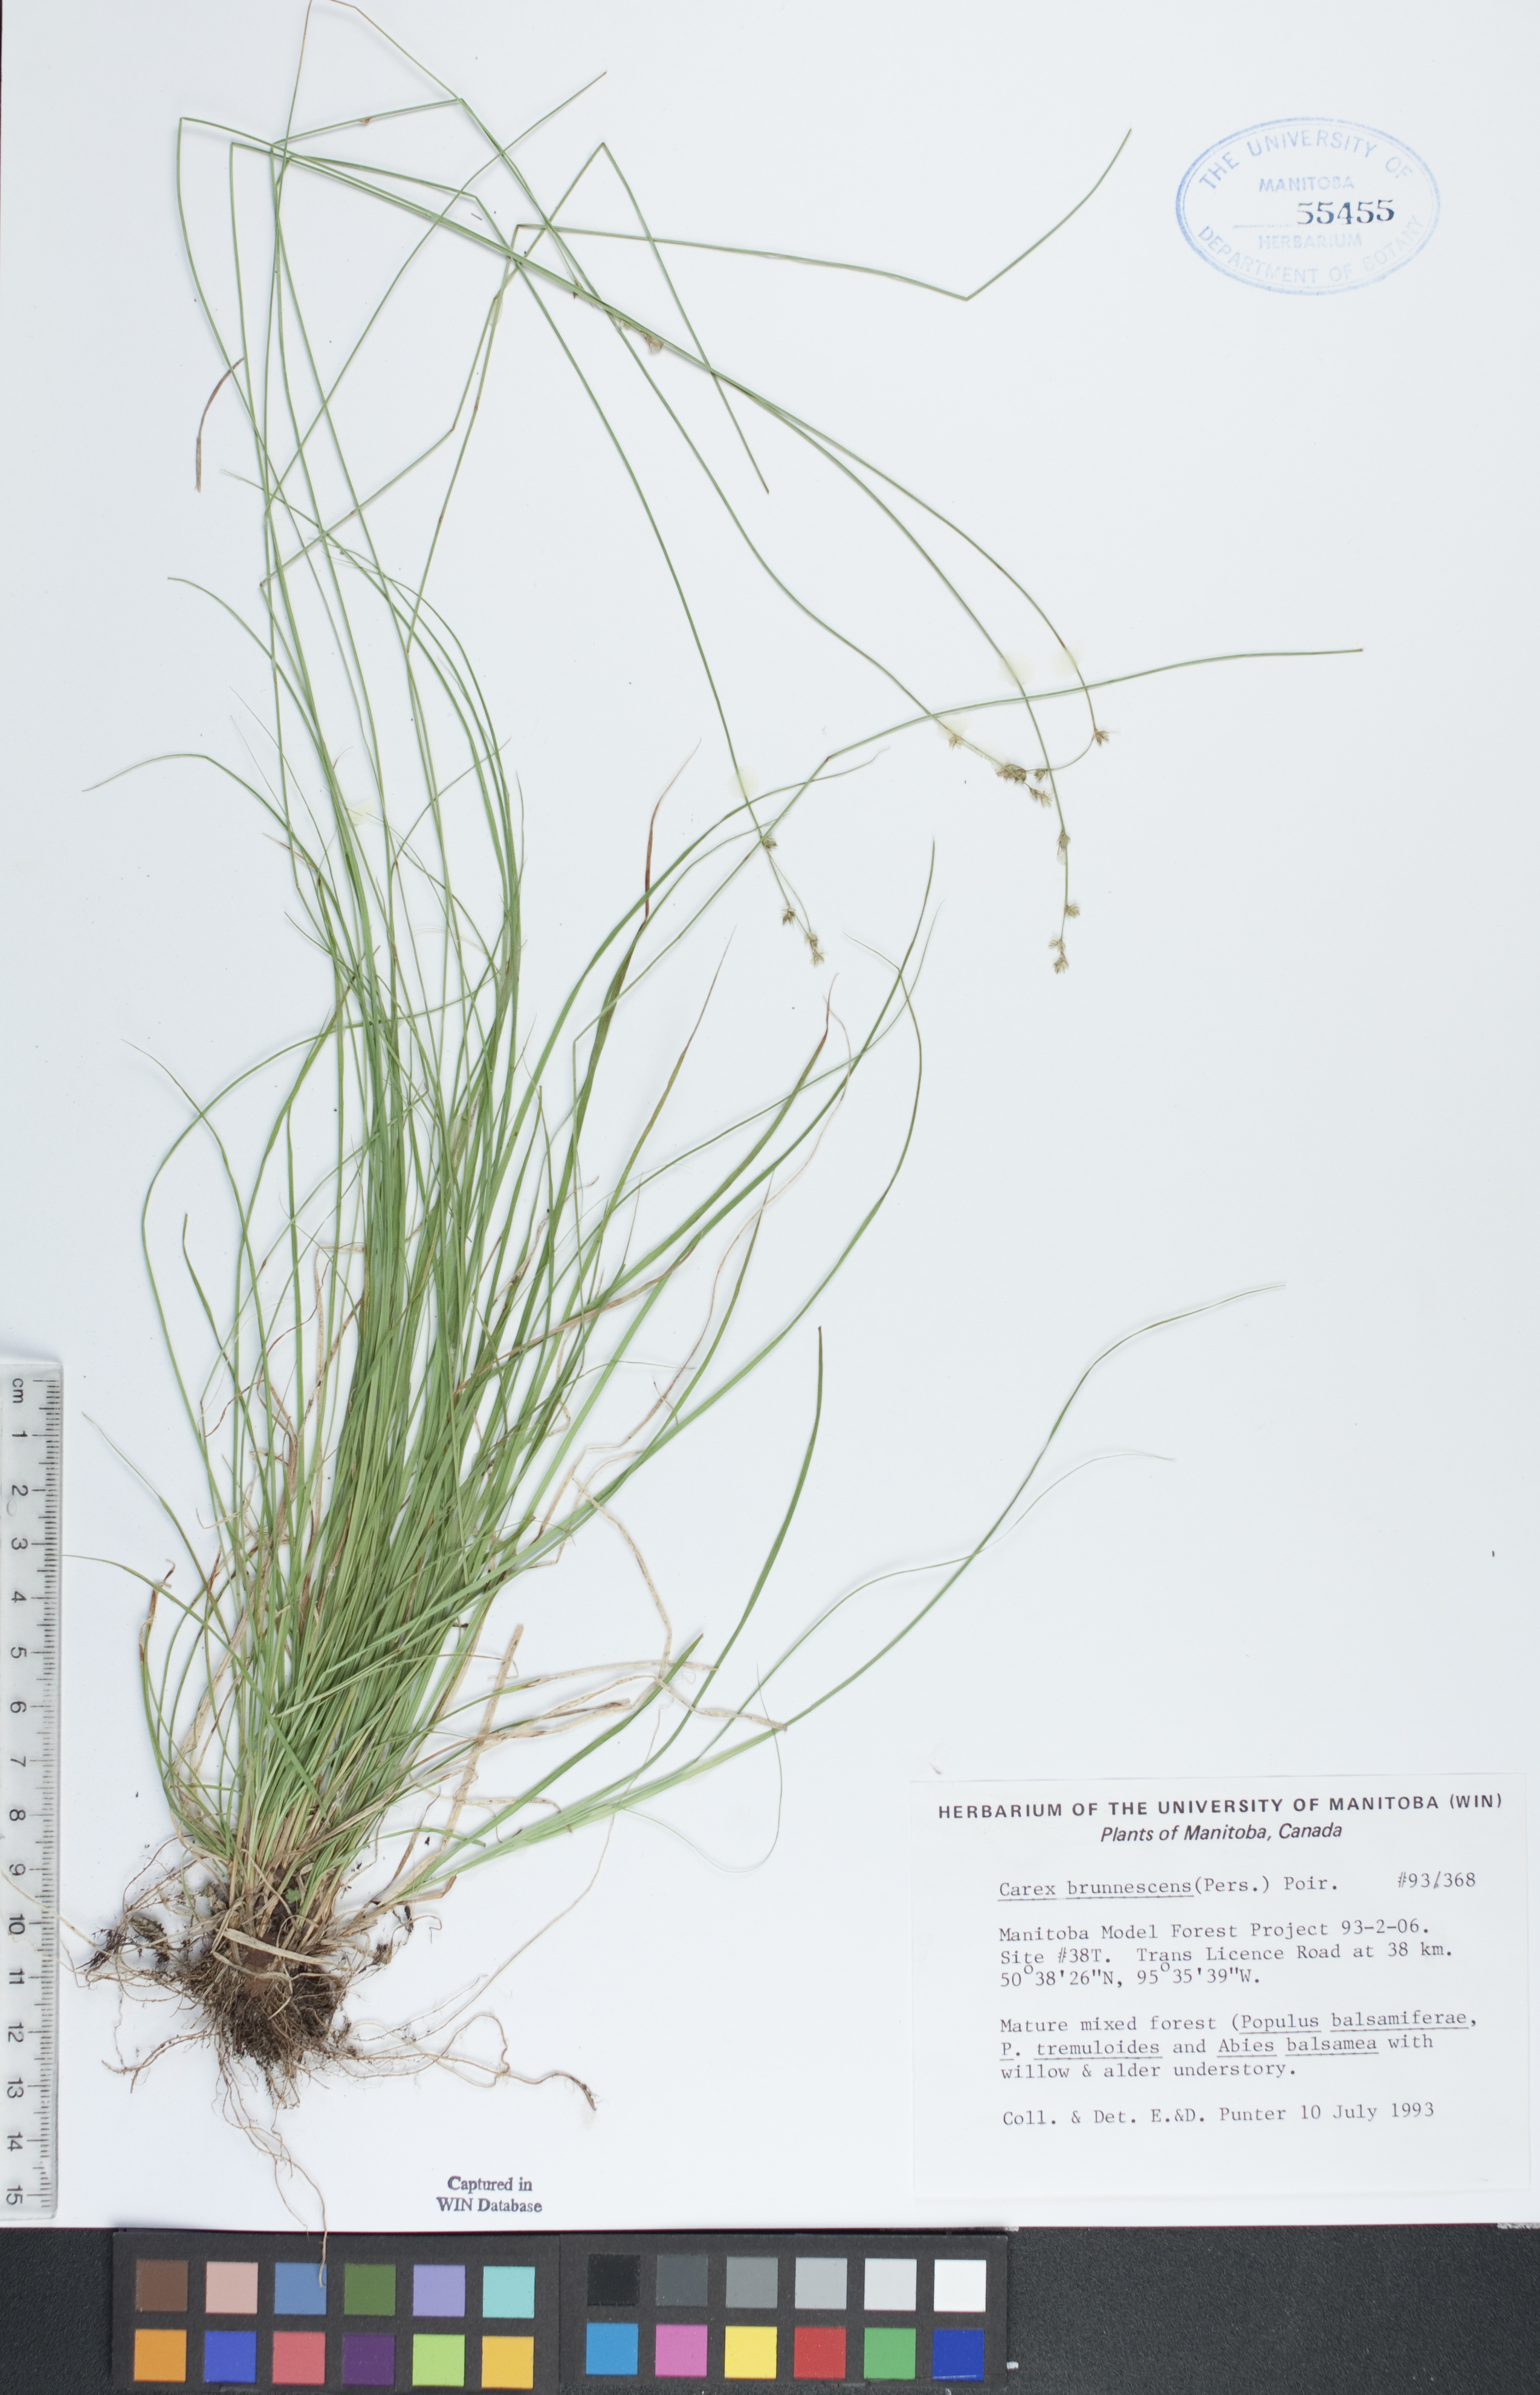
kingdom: Plantae
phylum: Tracheophyta
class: Liliopsida
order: Poales
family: Cyperaceae
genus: Carex
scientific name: Carex brunnescens
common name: Brown sedge
